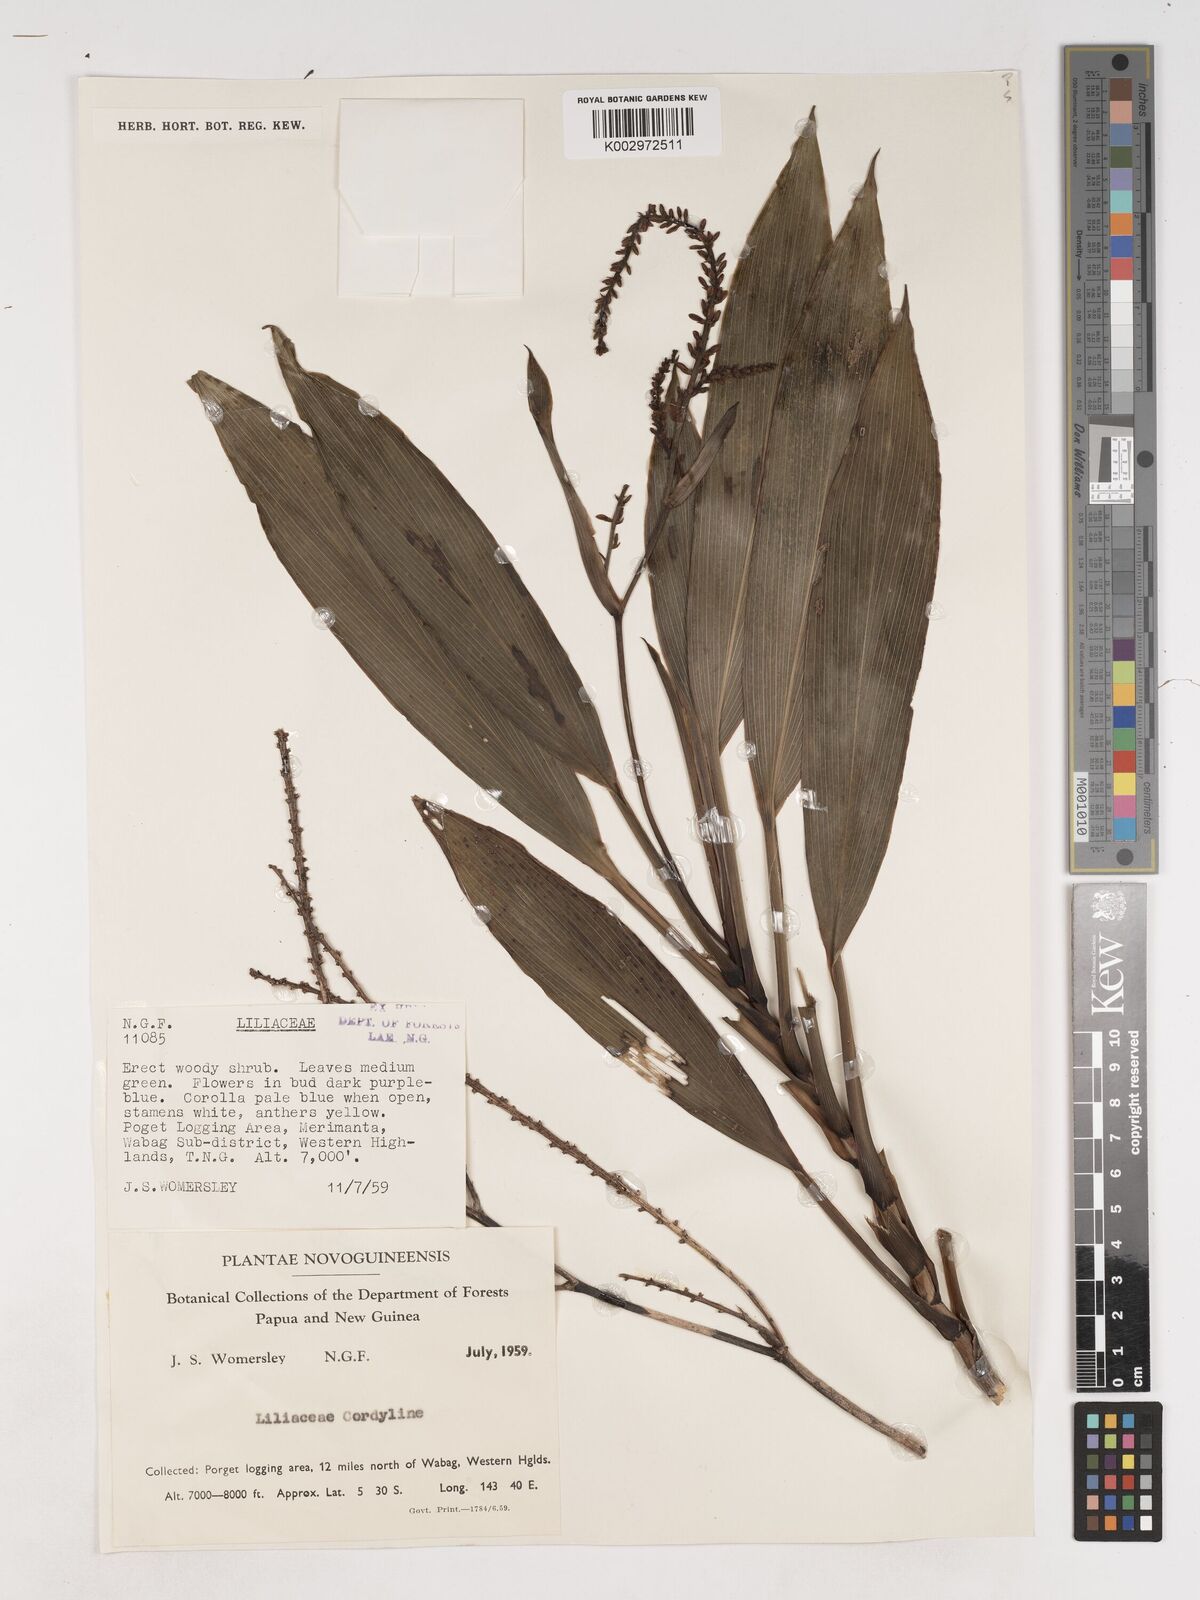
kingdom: Plantae
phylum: Tracheophyta
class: Liliopsida
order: Asparagales
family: Asparagaceae
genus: Cordyline
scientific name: Cordyline
